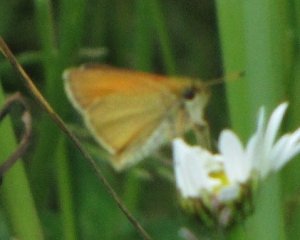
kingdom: Animalia
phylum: Arthropoda
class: Insecta
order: Lepidoptera
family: Hesperiidae
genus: Thymelicus
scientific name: Thymelicus lineola
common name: European Skipper
